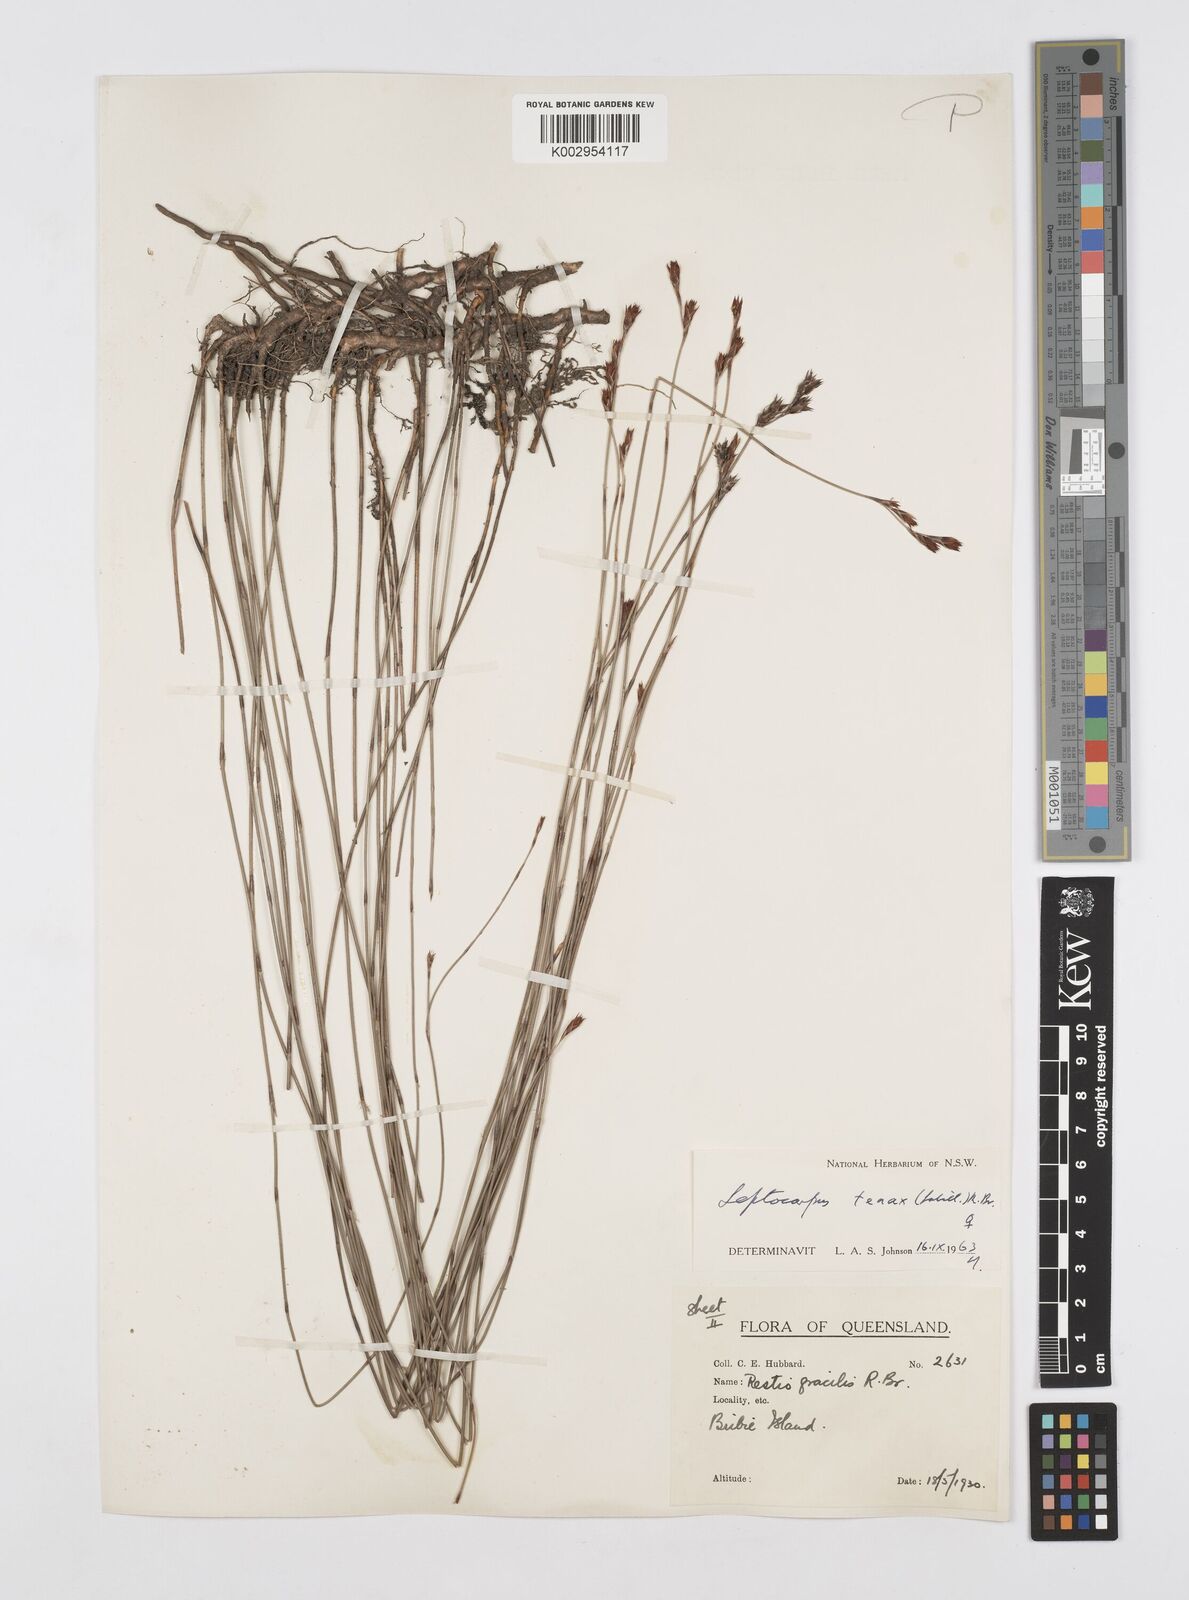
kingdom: Plantae
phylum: Tracheophyta
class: Liliopsida
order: Poales
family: Restionaceae
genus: Leptocarpus
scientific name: Leptocarpus tenax
